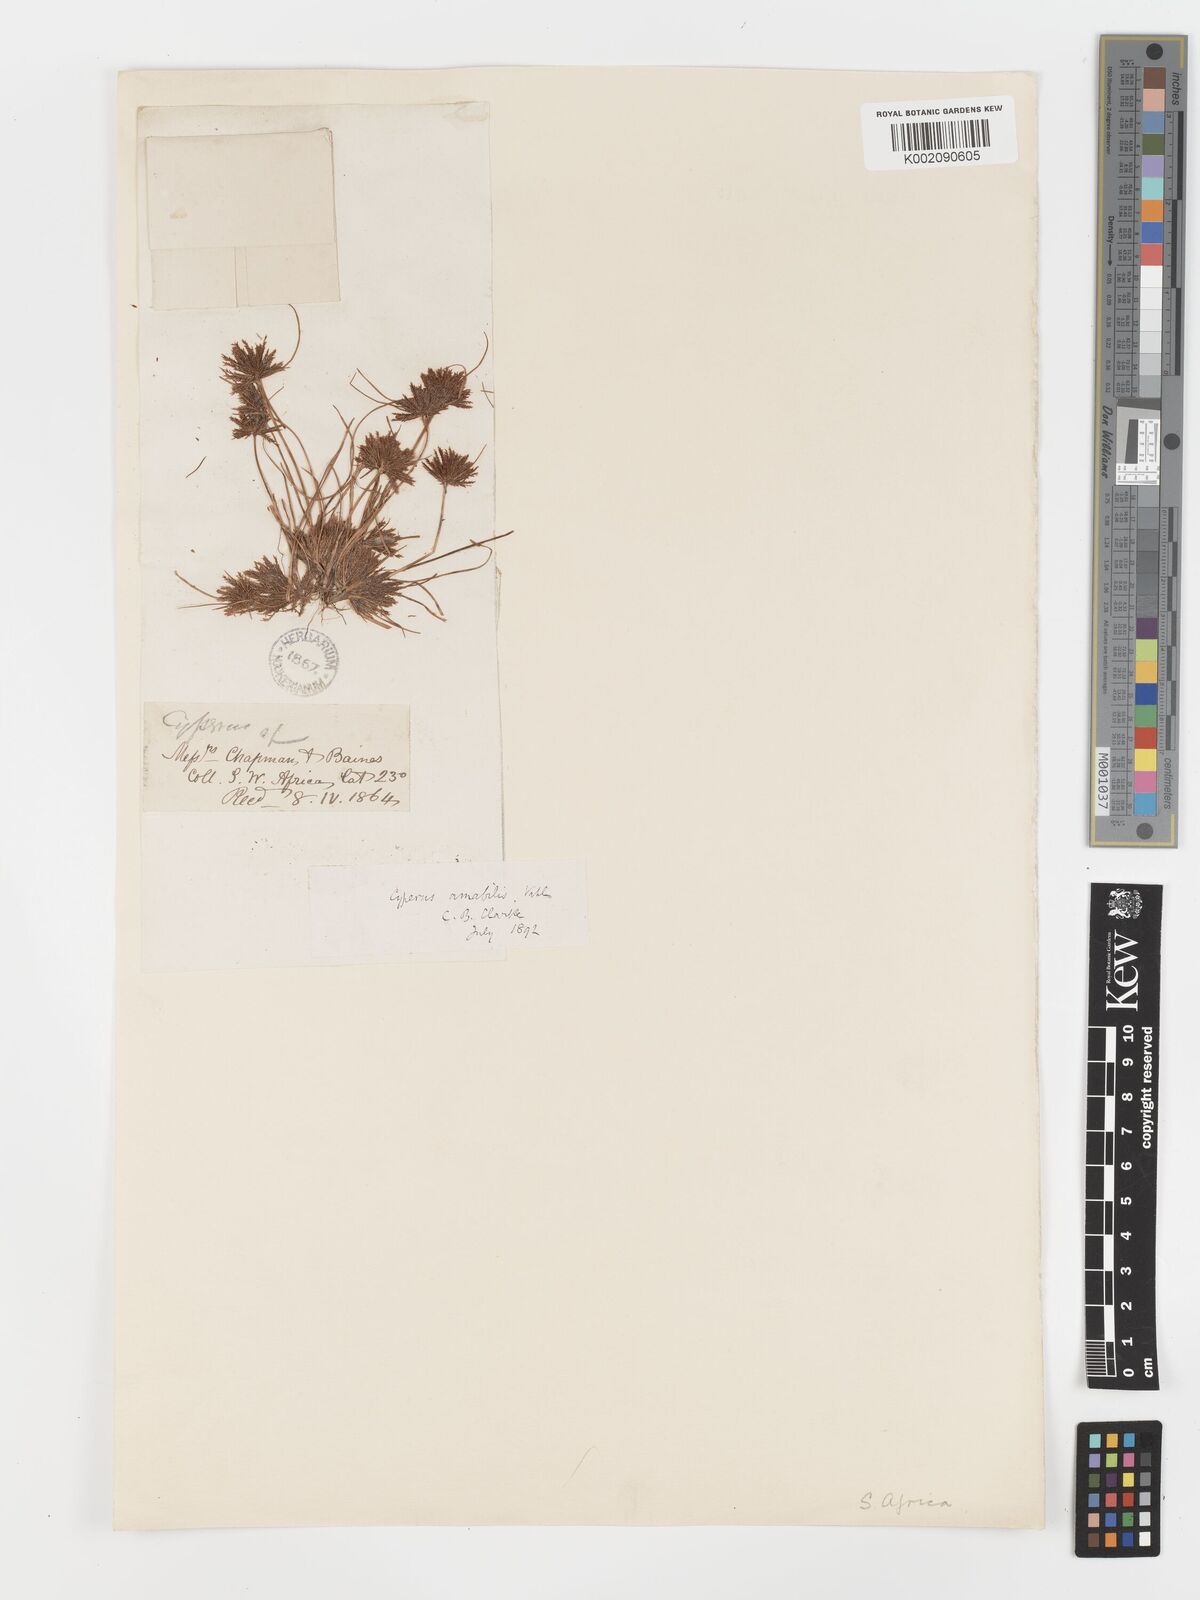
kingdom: Plantae
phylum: Tracheophyta
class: Liliopsida
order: Poales
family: Cyperaceae
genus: Cyperus
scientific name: Cyperus amabilis
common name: Foothill flat sedge
